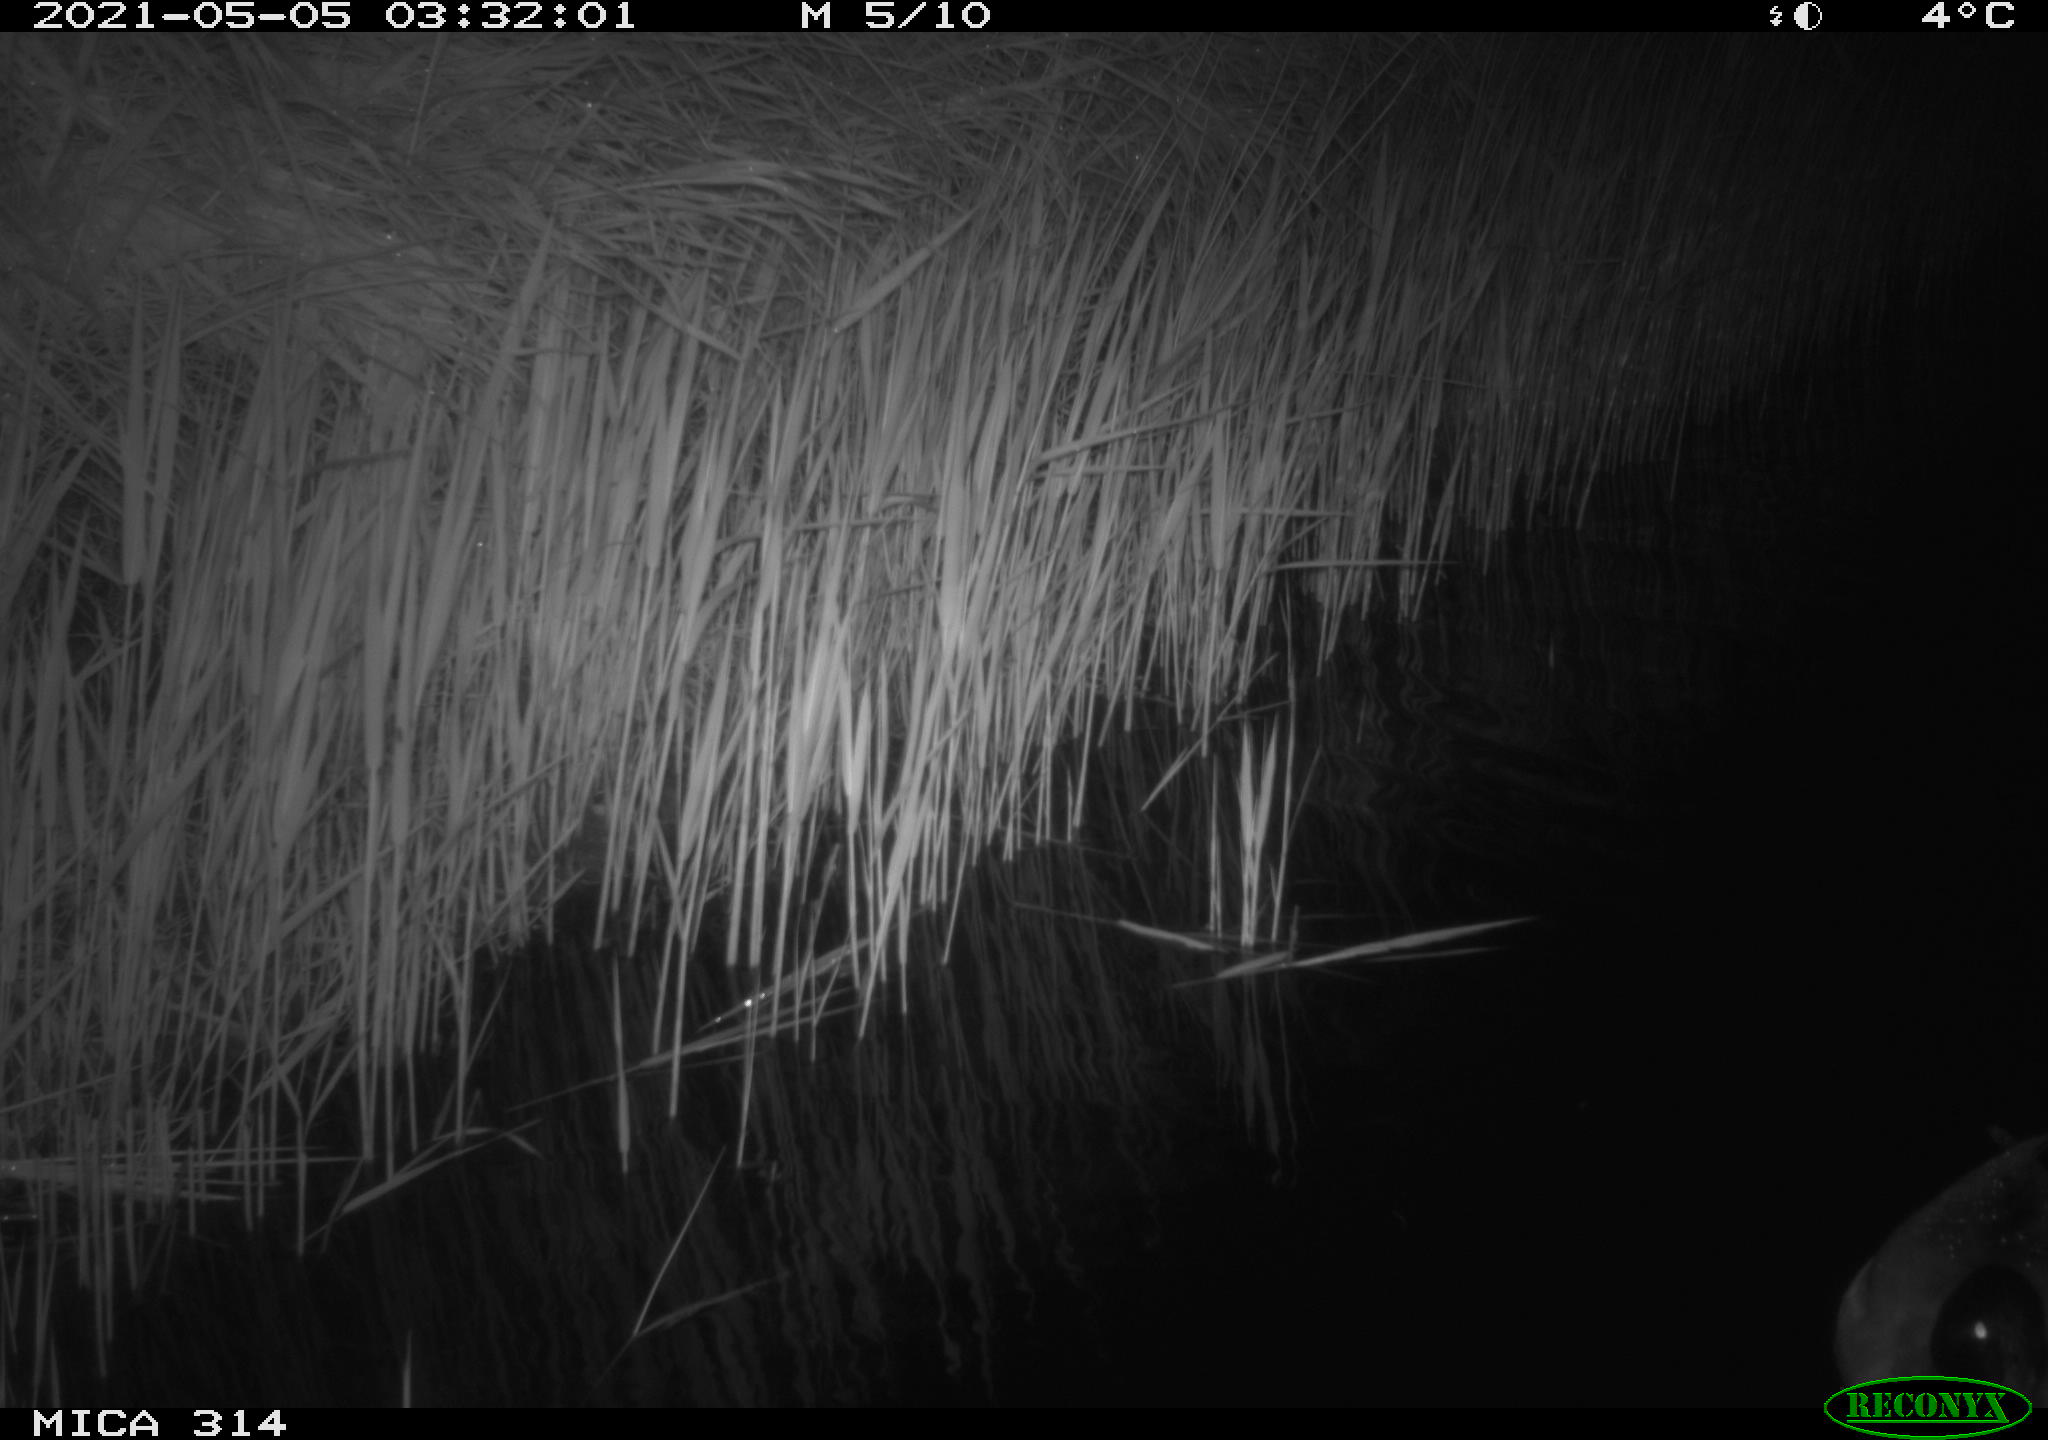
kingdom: Animalia
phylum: Chordata
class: Aves
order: Anseriformes
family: Anatidae
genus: Anas
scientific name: Anas platyrhynchos
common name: Mallard
